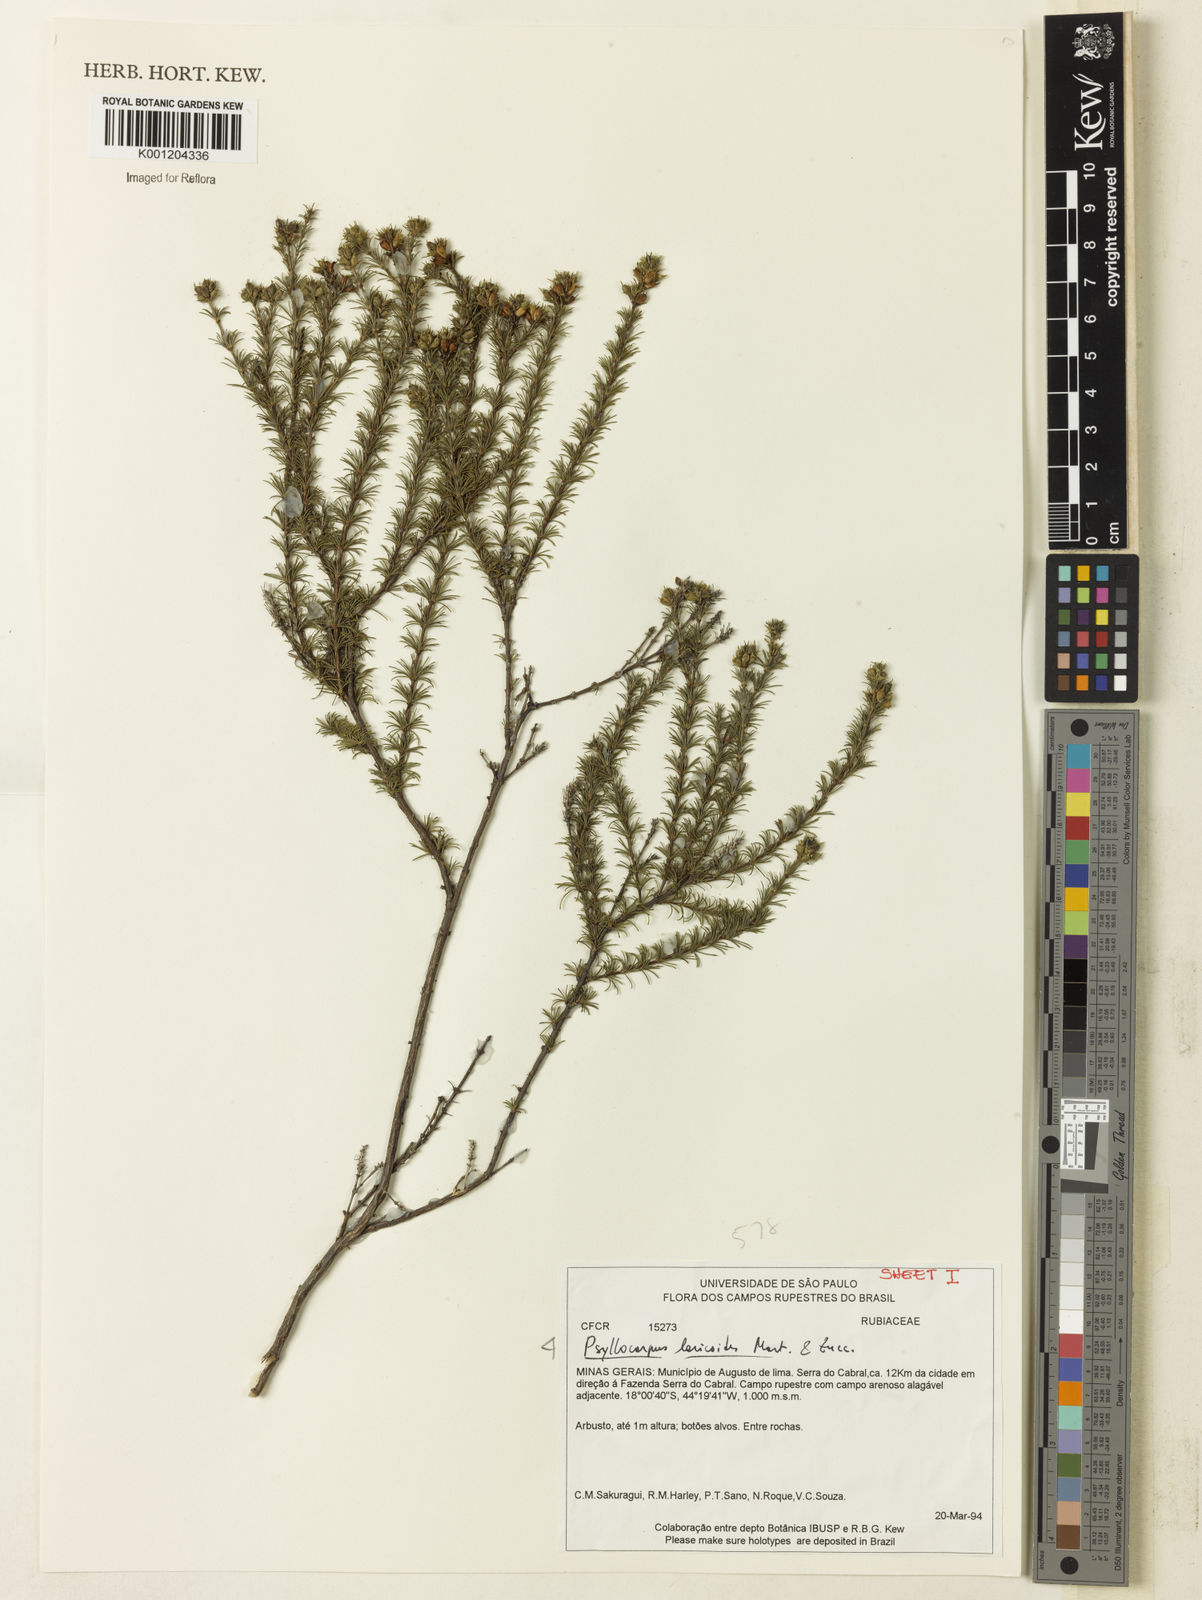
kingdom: Plantae
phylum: Tracheophyta
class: Magnoliopsida
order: Gentianales
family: Rubiaceae
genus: Psyllocarpus
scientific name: Psyllocarpus laricoides
